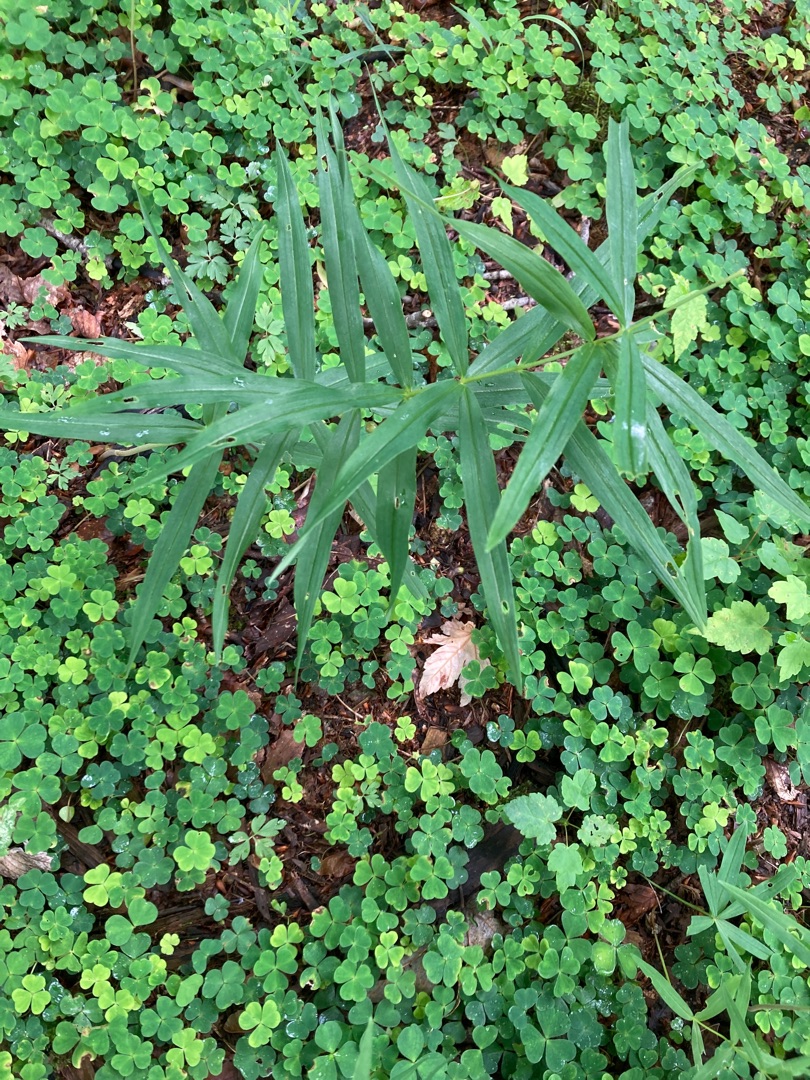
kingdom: Plantae
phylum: Tracheophyta
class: Liliopsida
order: Asparagales
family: Asparagaceae
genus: Polygonatum
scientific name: Polygonatum verticillatum
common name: Krans-konval
